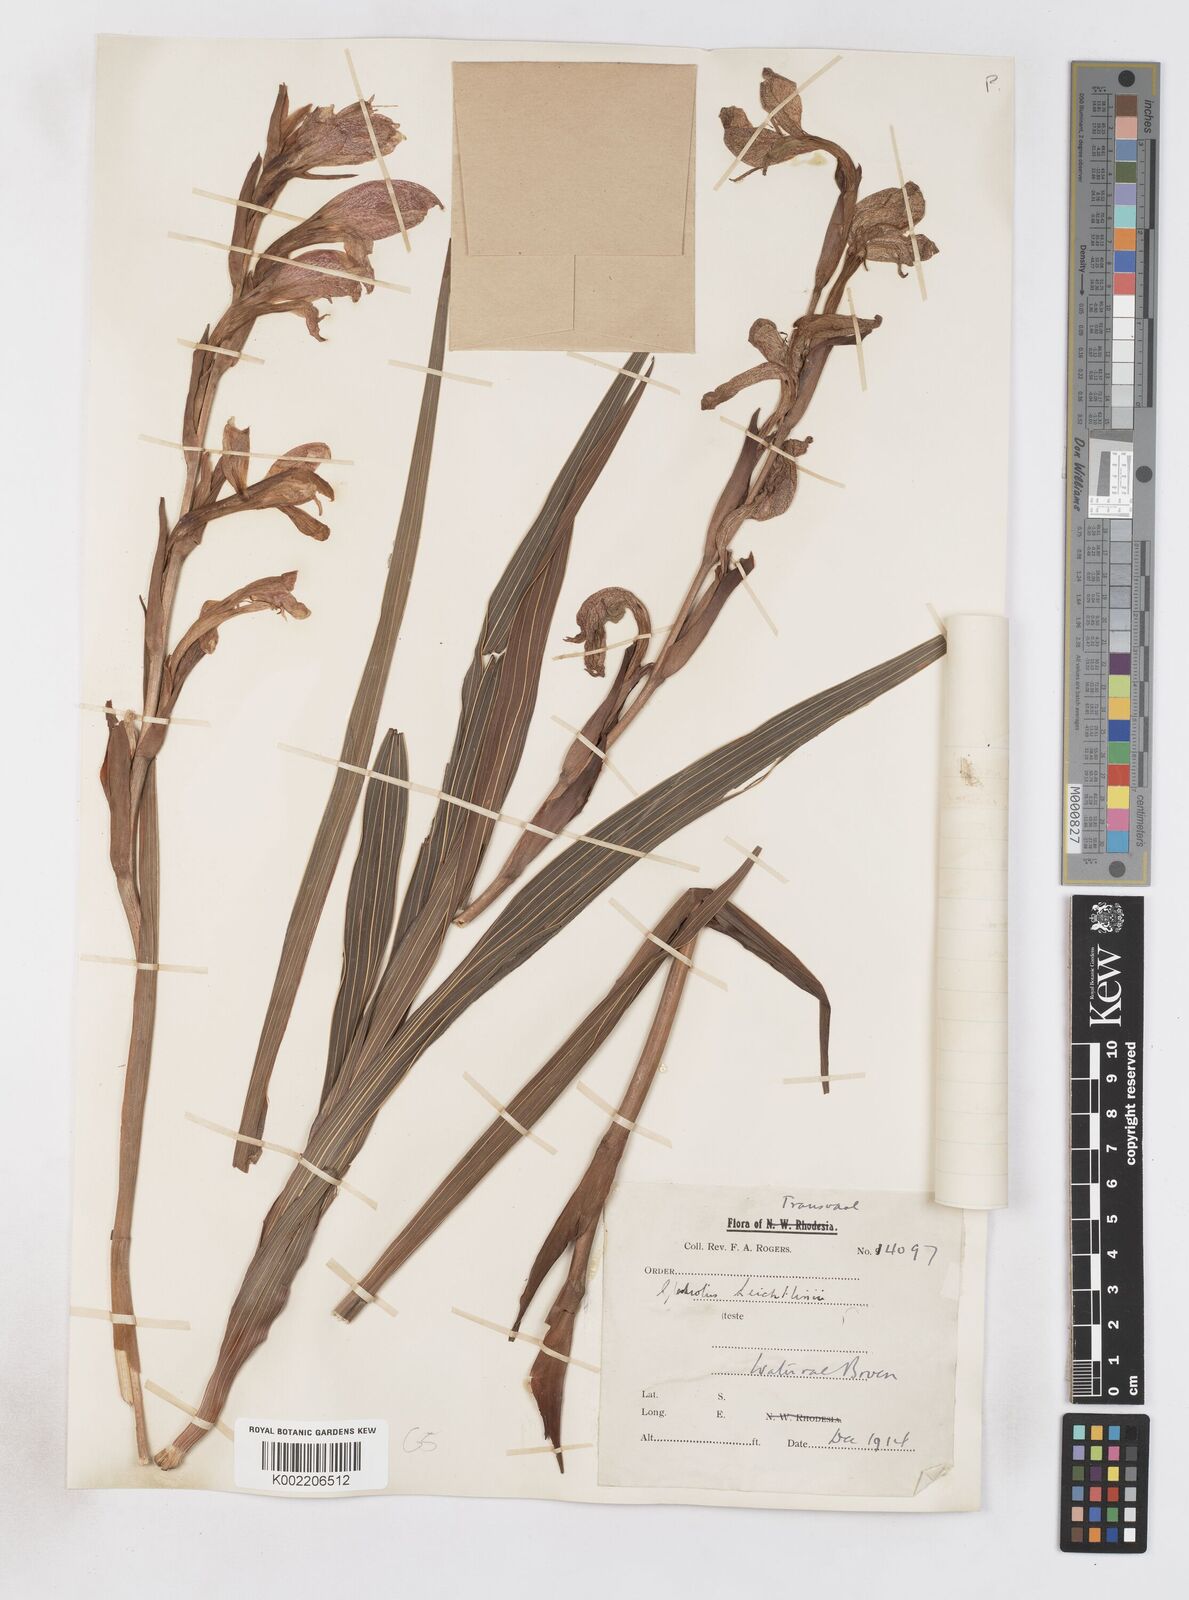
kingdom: Plantae
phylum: Tracheophyta
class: Liliopsida
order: Asparagales
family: Iridaceae
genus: Gladiolus
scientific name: Gladiolus dalenii
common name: Cornflag
